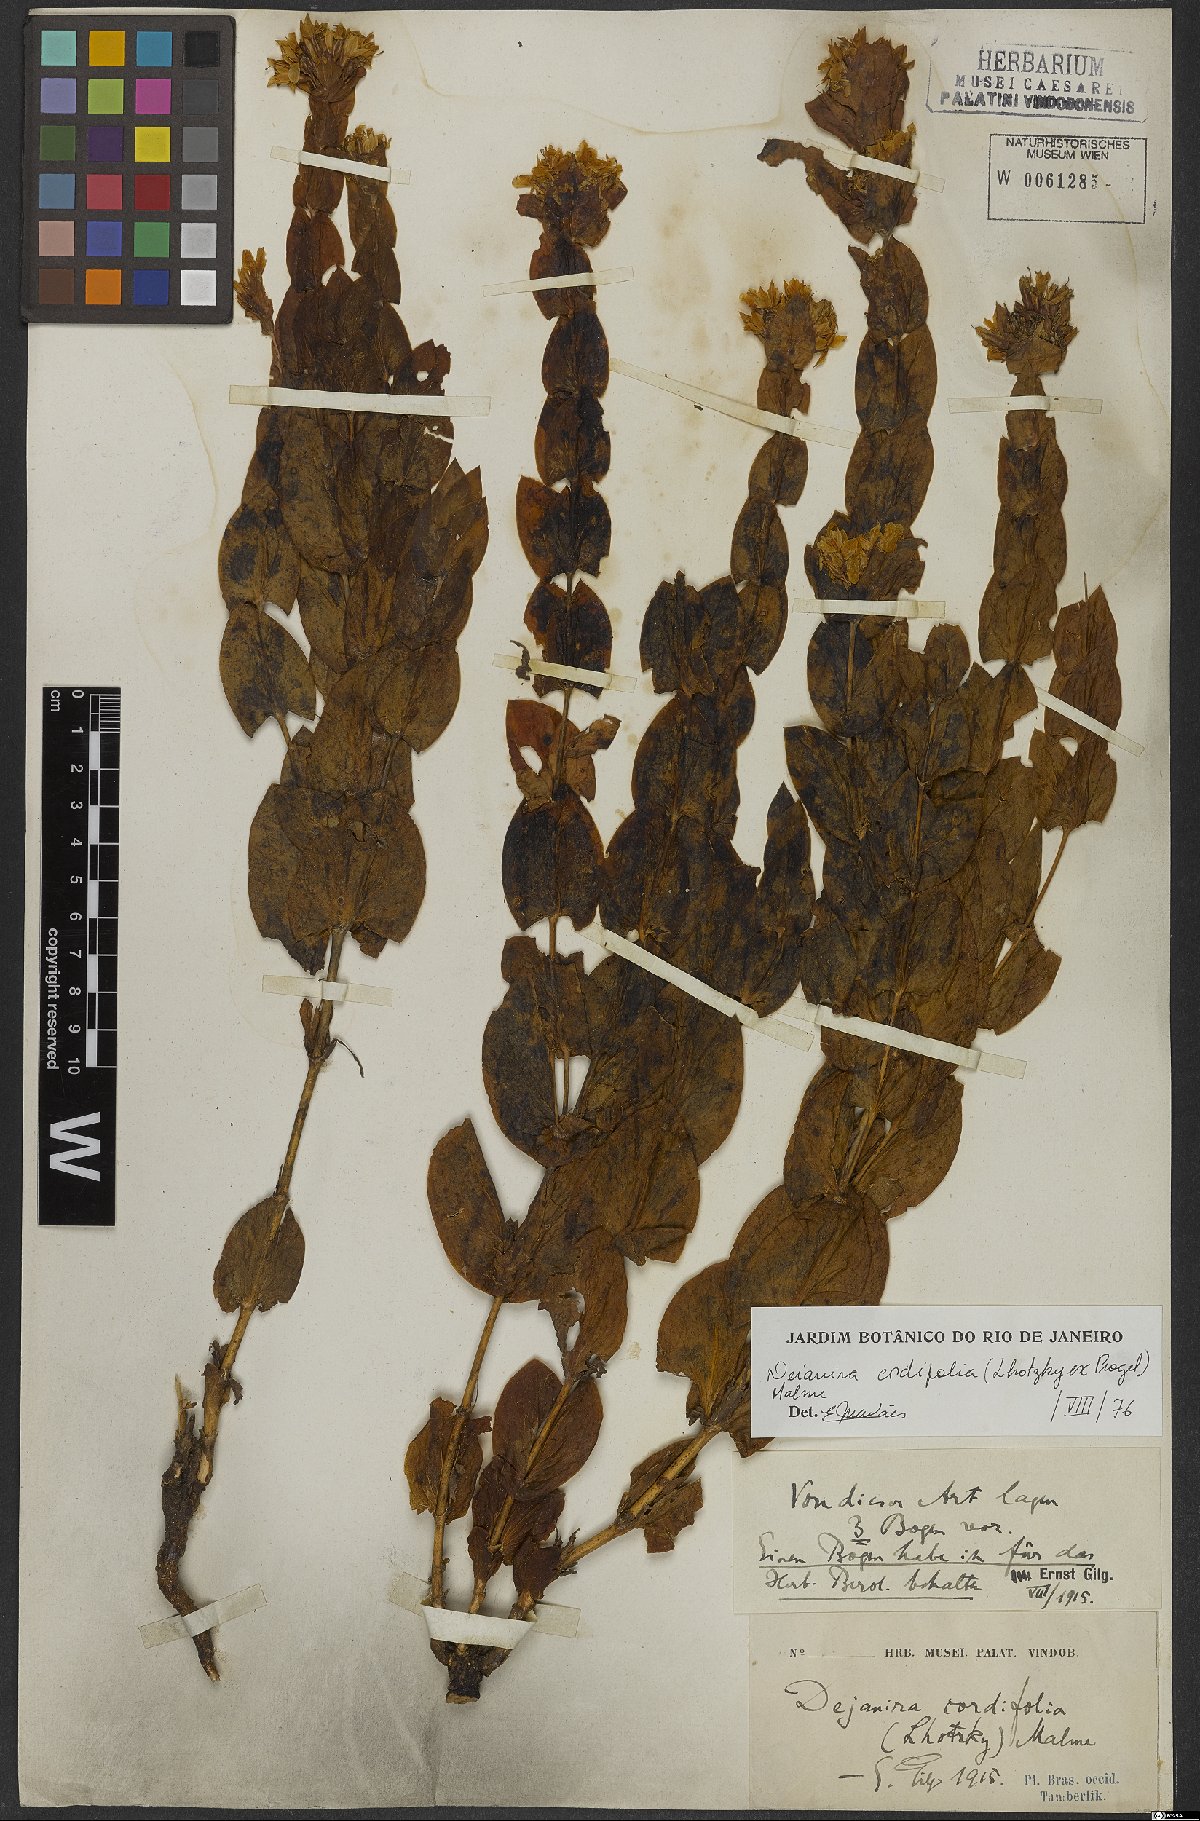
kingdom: Plantae
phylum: Tracheophyta
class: Magnoliopsida
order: Gentianales
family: Gentianaceae
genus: Deianira
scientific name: Deianira cordifolia
